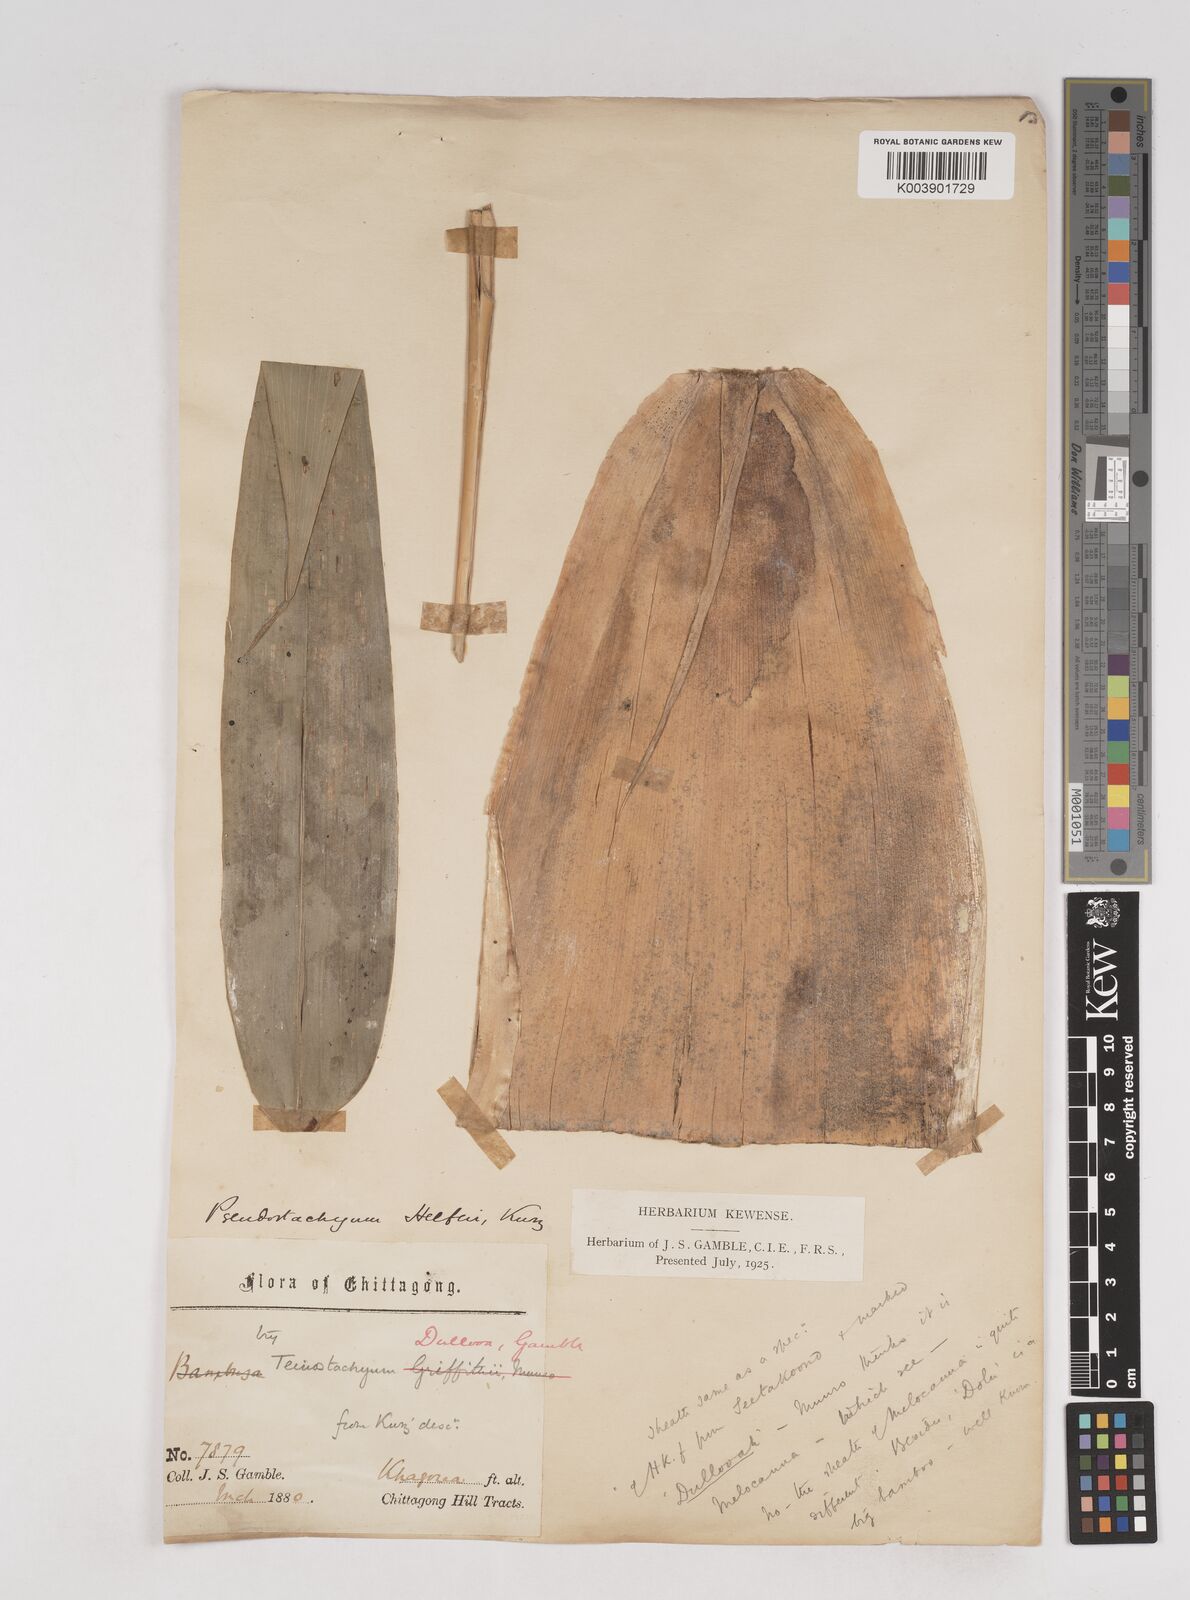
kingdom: Plantae
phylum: Tracheophyta
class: Liliopsida
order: Poales
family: Poaceae
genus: Schizostachyum
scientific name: Schizostachyum dullooa
